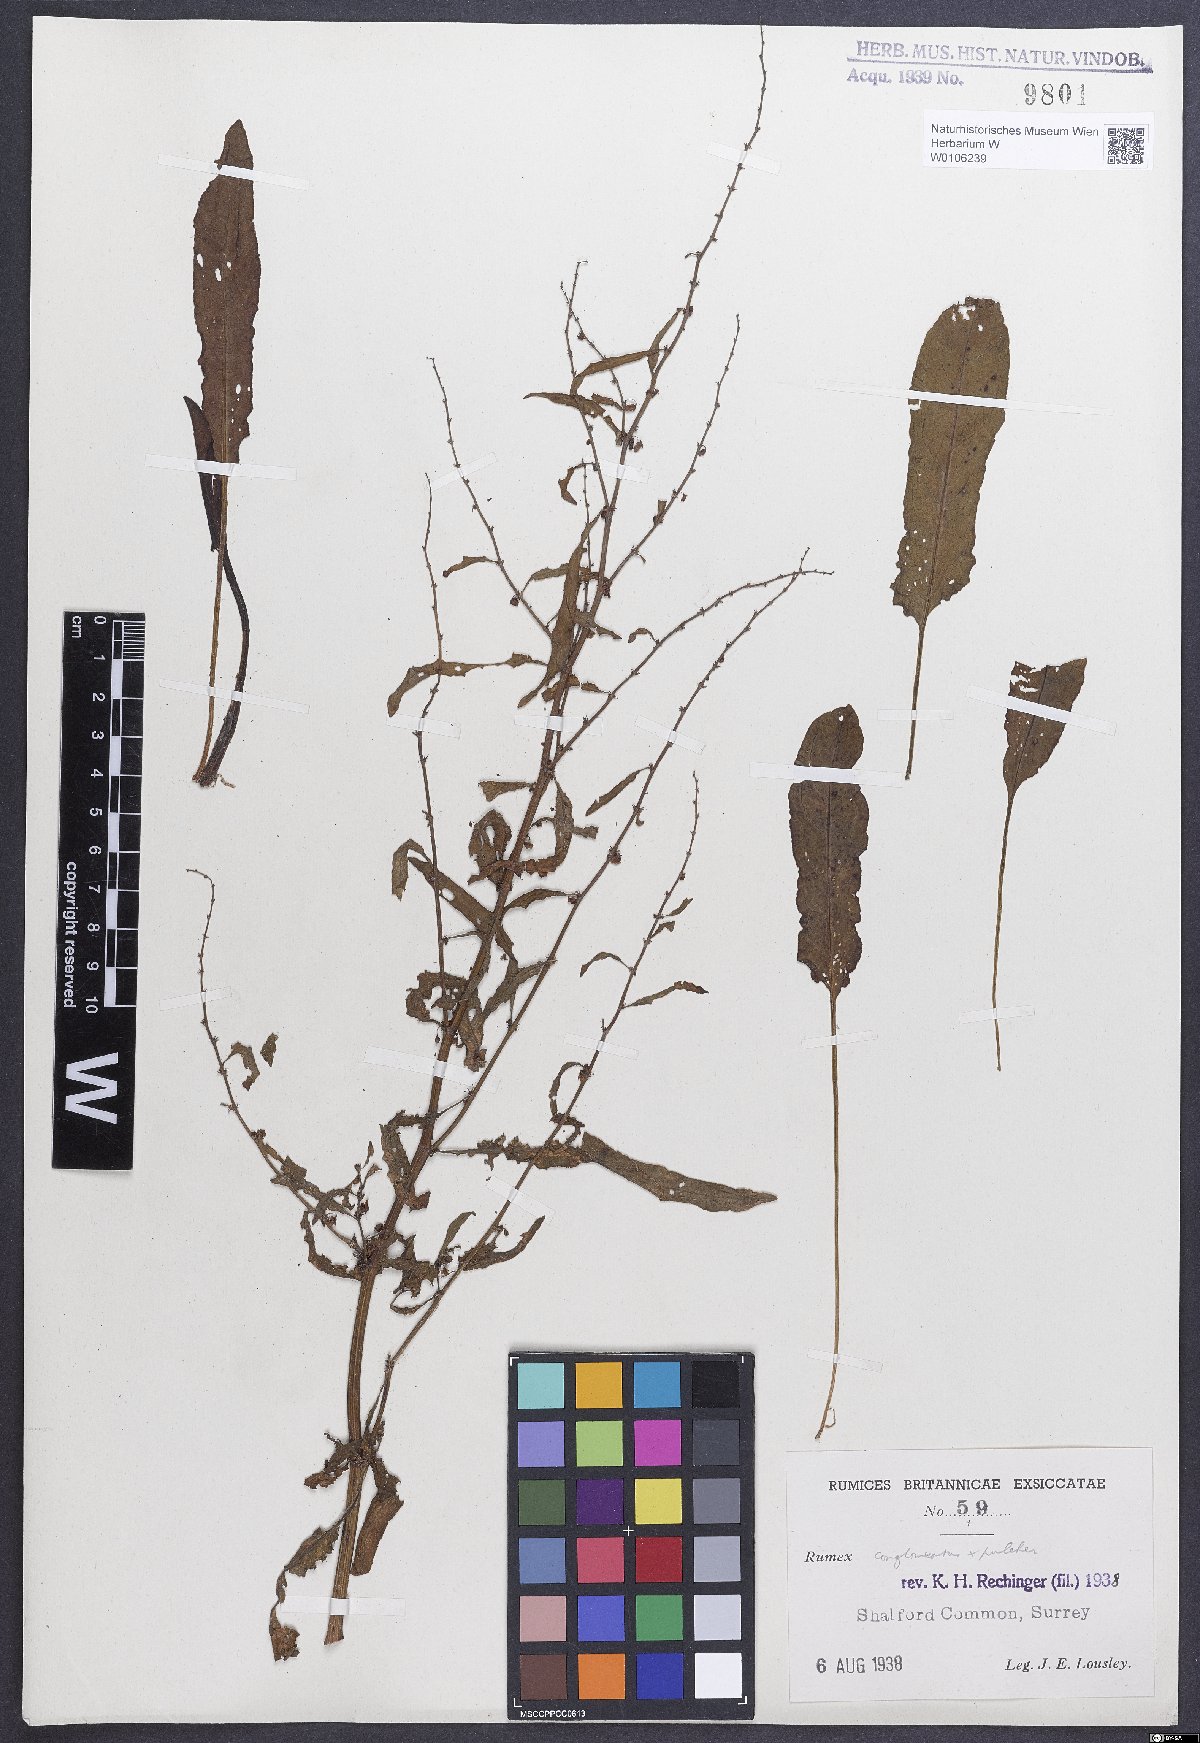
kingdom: Plantae
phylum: Tracheophyta
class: Magnoliopsida
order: Caryophyllales
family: Polygonaceae
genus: Rumex
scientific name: Rumex
